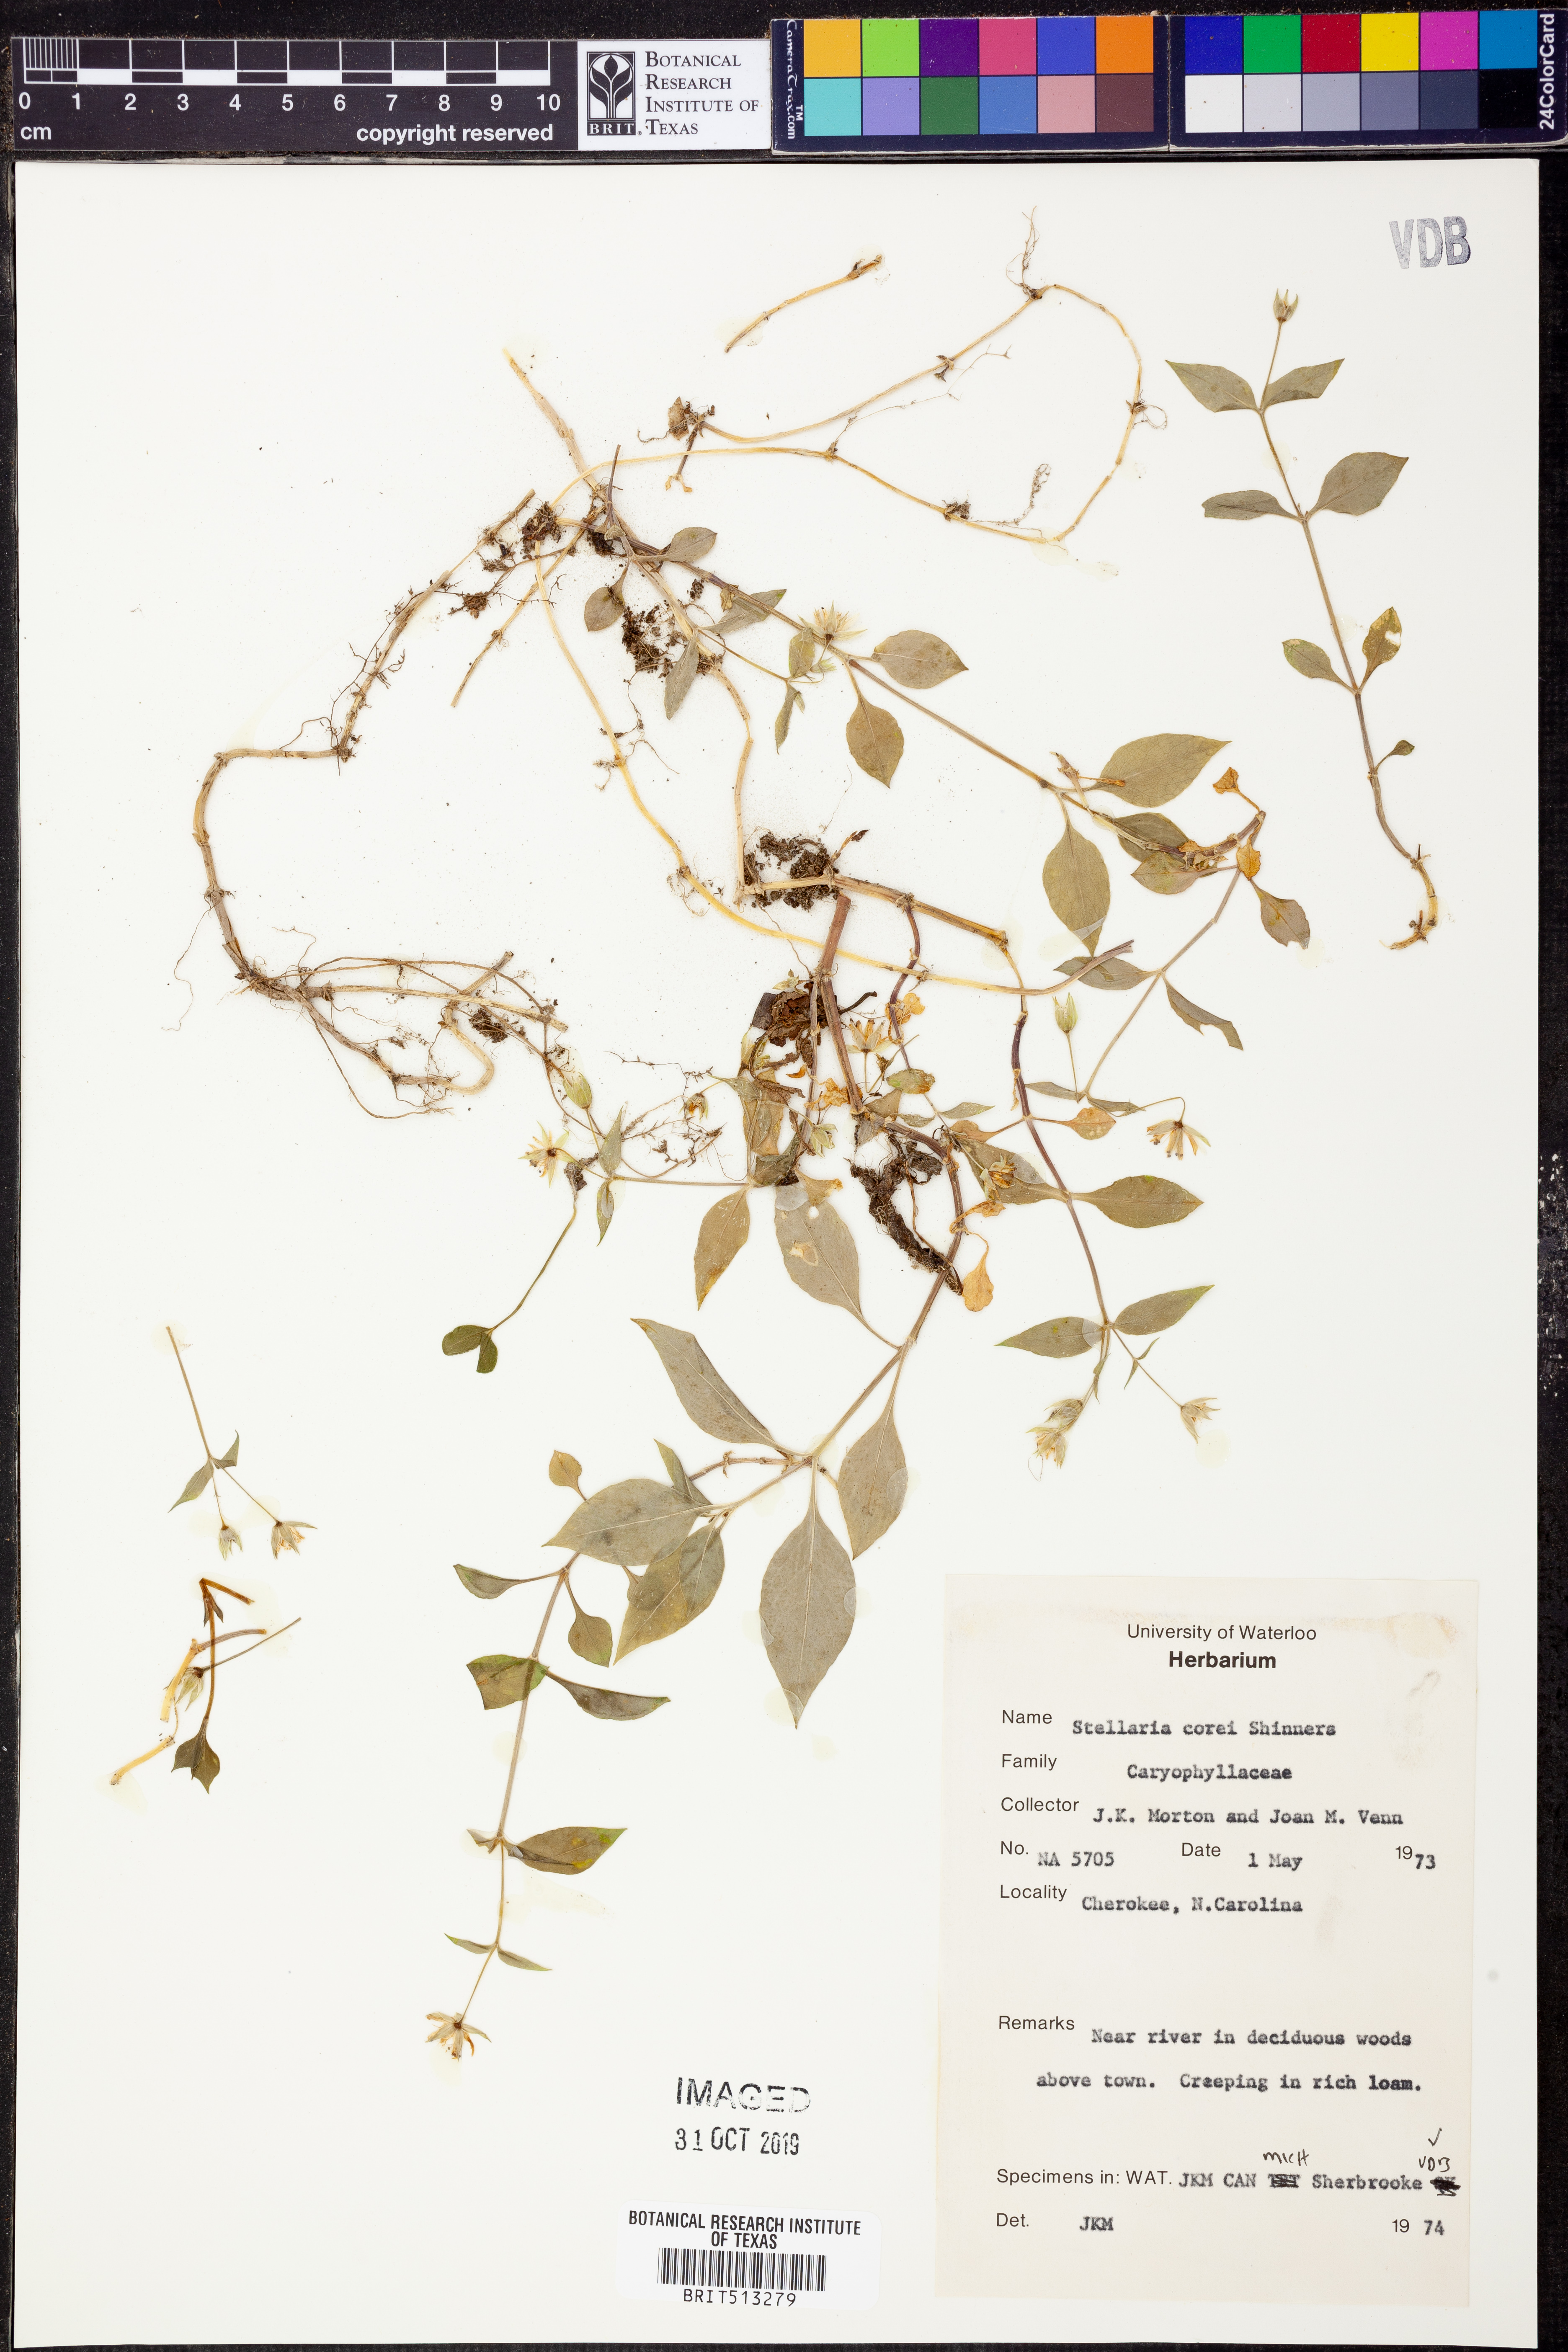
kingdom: Plantae
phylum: Tracheophyta
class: Magnoliopsida
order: Caryophyllales
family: Caryophyllaceae
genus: Stellaria
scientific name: Stellaria corei
